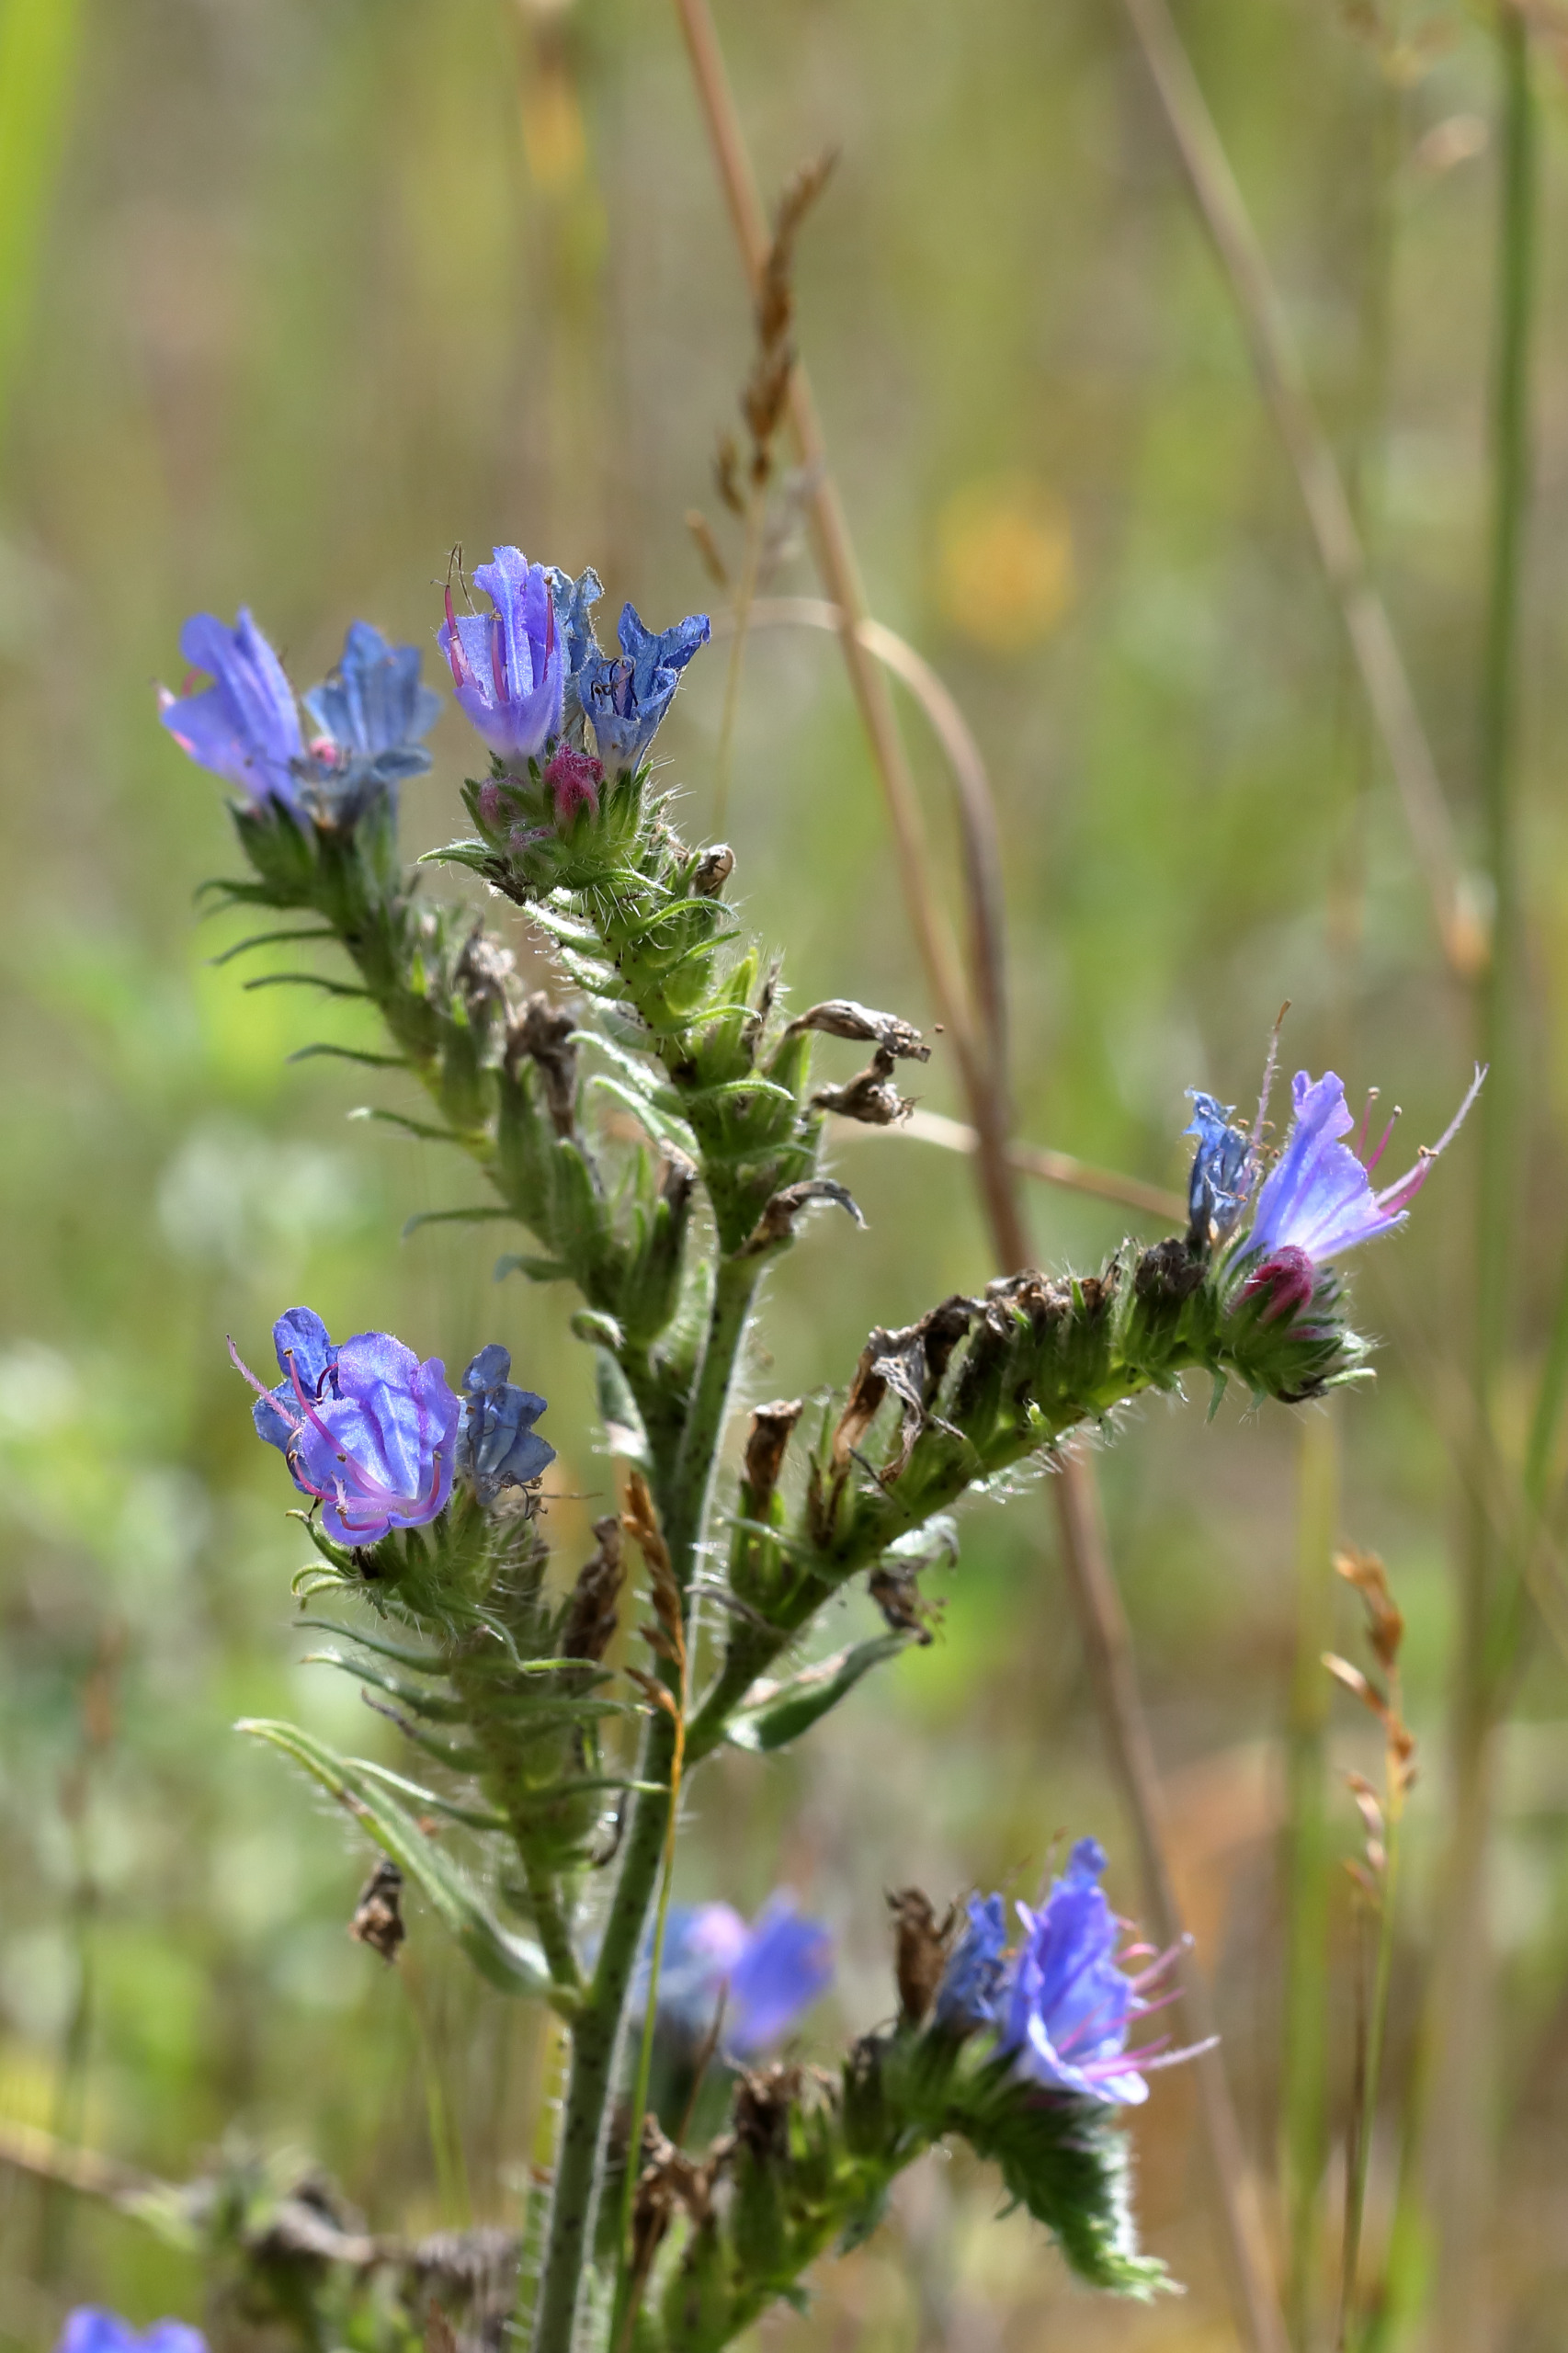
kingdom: Plantae
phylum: Tracheophyta
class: Magnoliopsida
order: Boraginales
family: Boraginaceae
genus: Echium
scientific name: Echium vulgare
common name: Slangehoved
